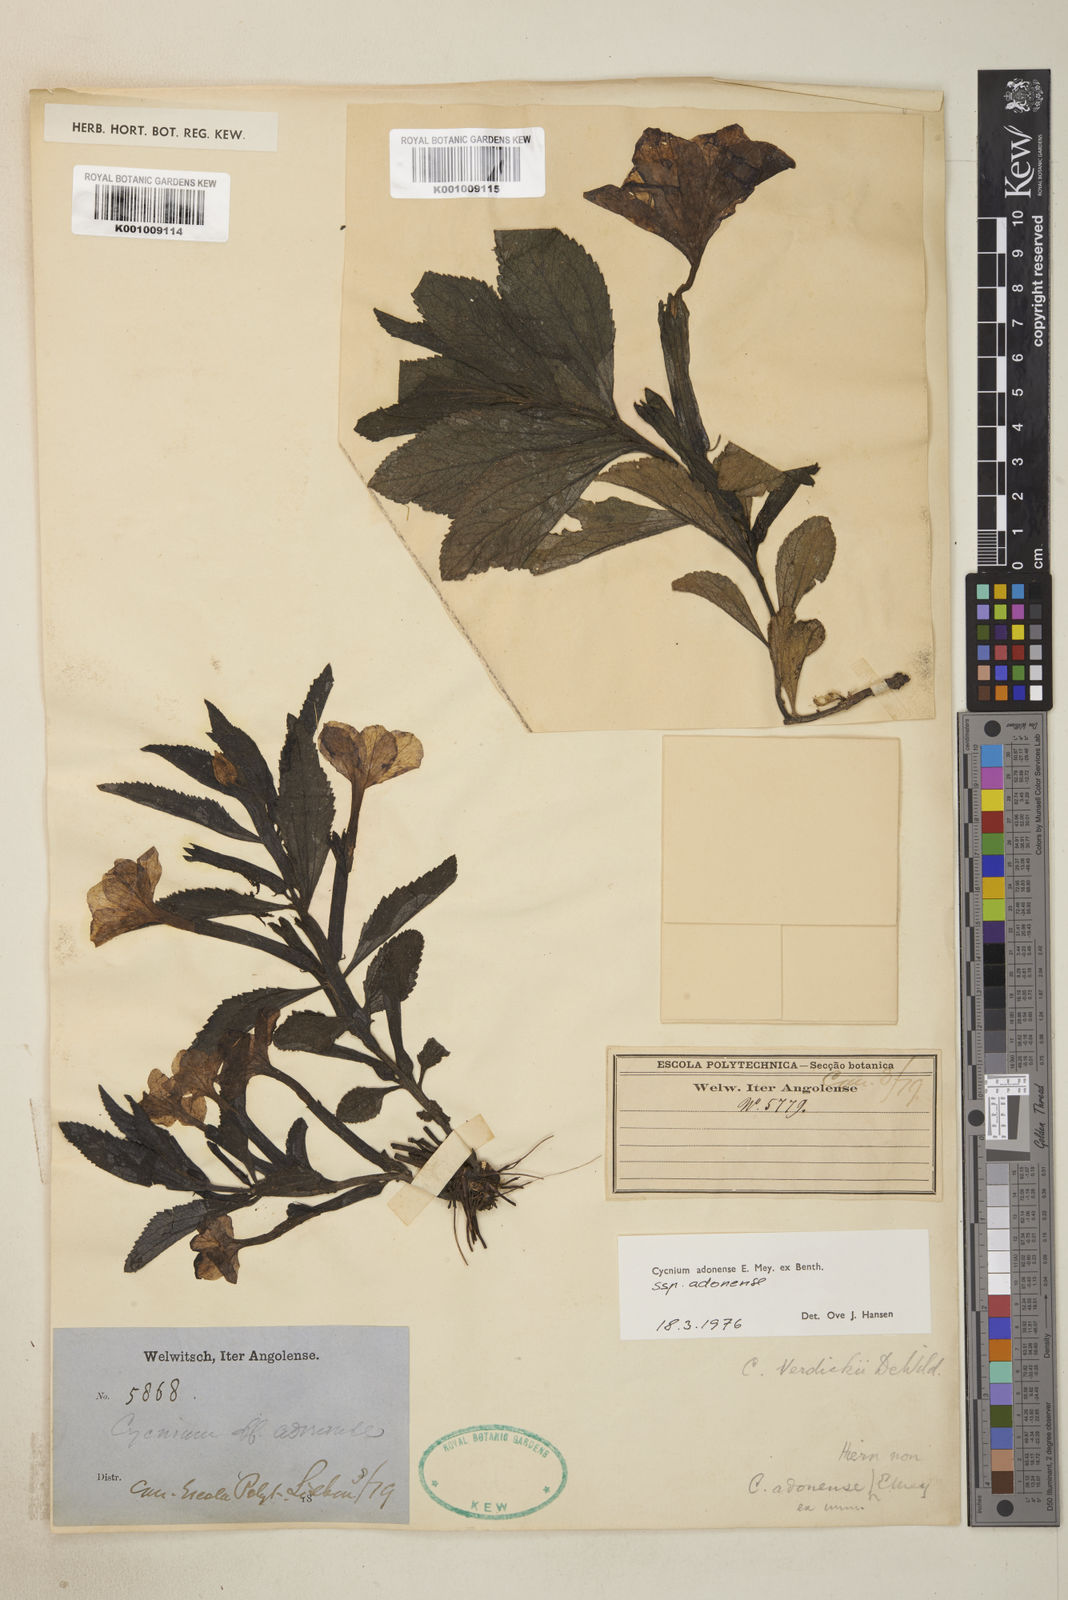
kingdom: Plantae
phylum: Tracheophyta
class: Magnoliopsida
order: Lamiales
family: Orobanchaceae
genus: Cycnium
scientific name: Cycnium adonense
